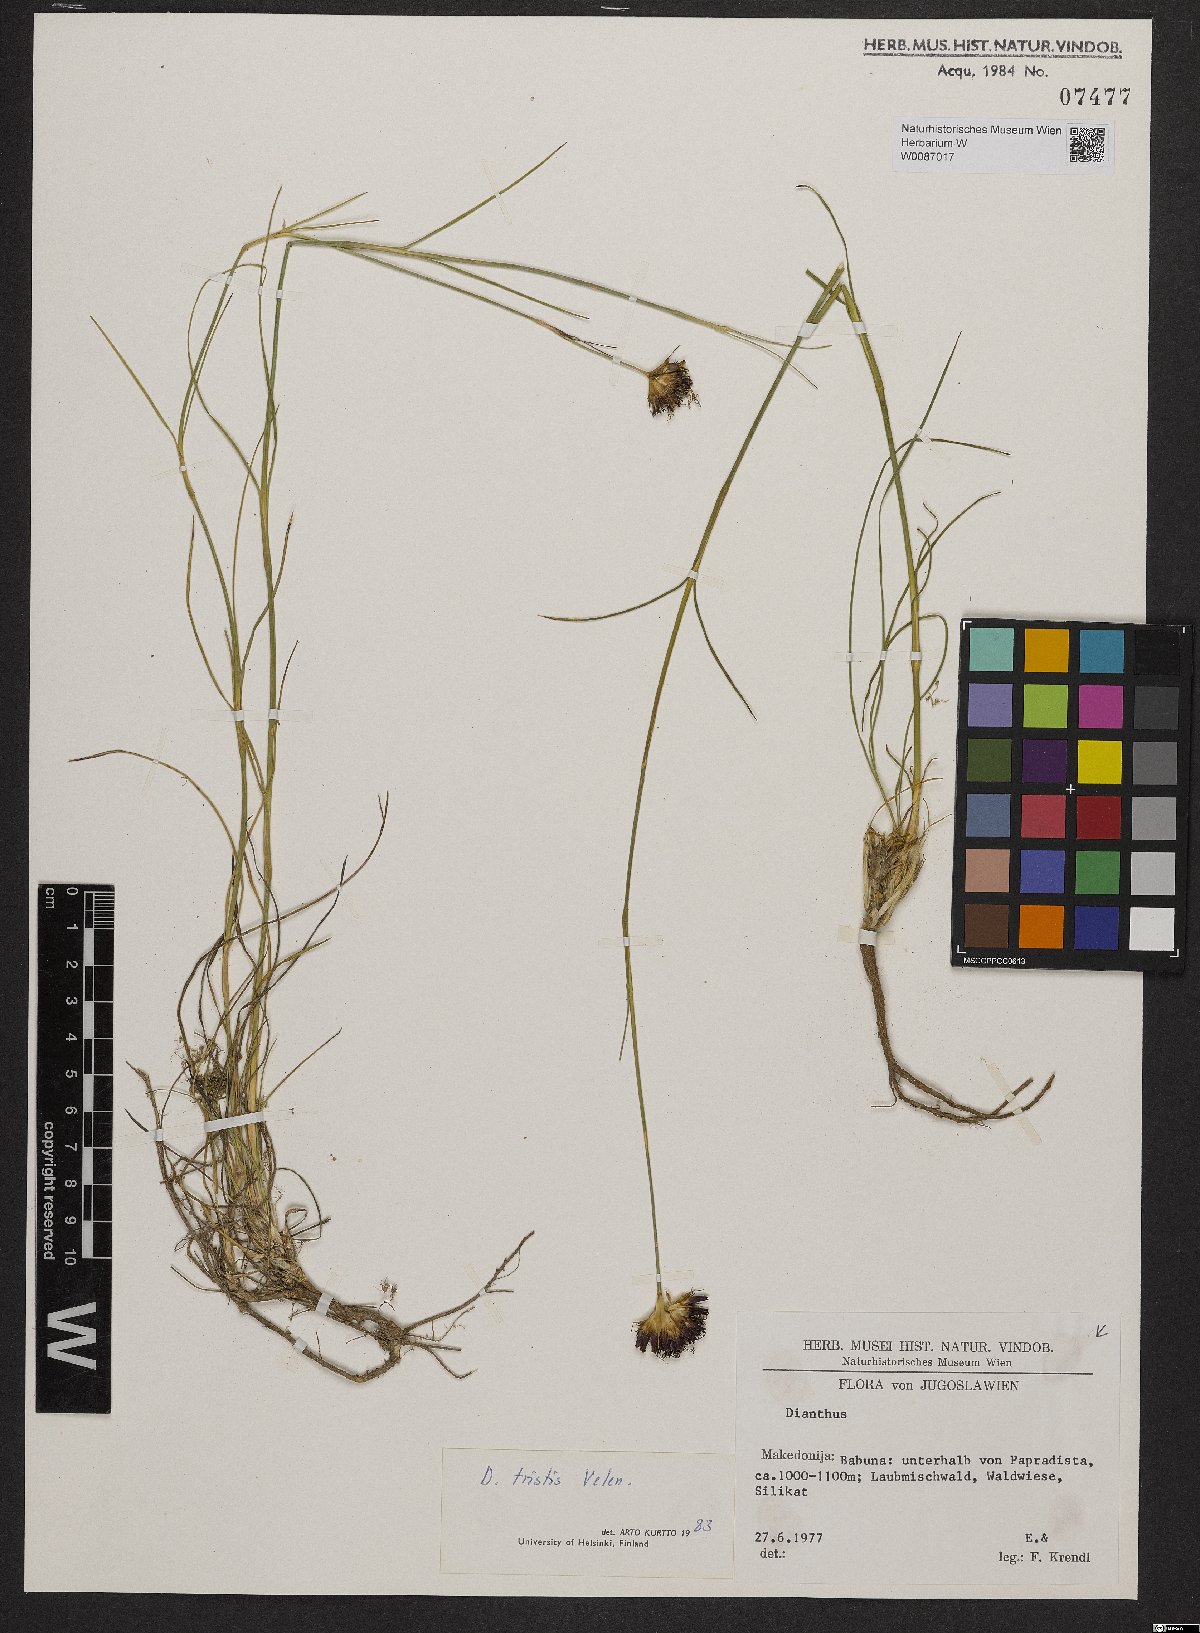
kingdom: Plantae
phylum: Tracheophyta
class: Magnoliopsida
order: Caryophyllales
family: Caryophyllaceae
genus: Dianthus
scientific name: Dianthus pancicii
